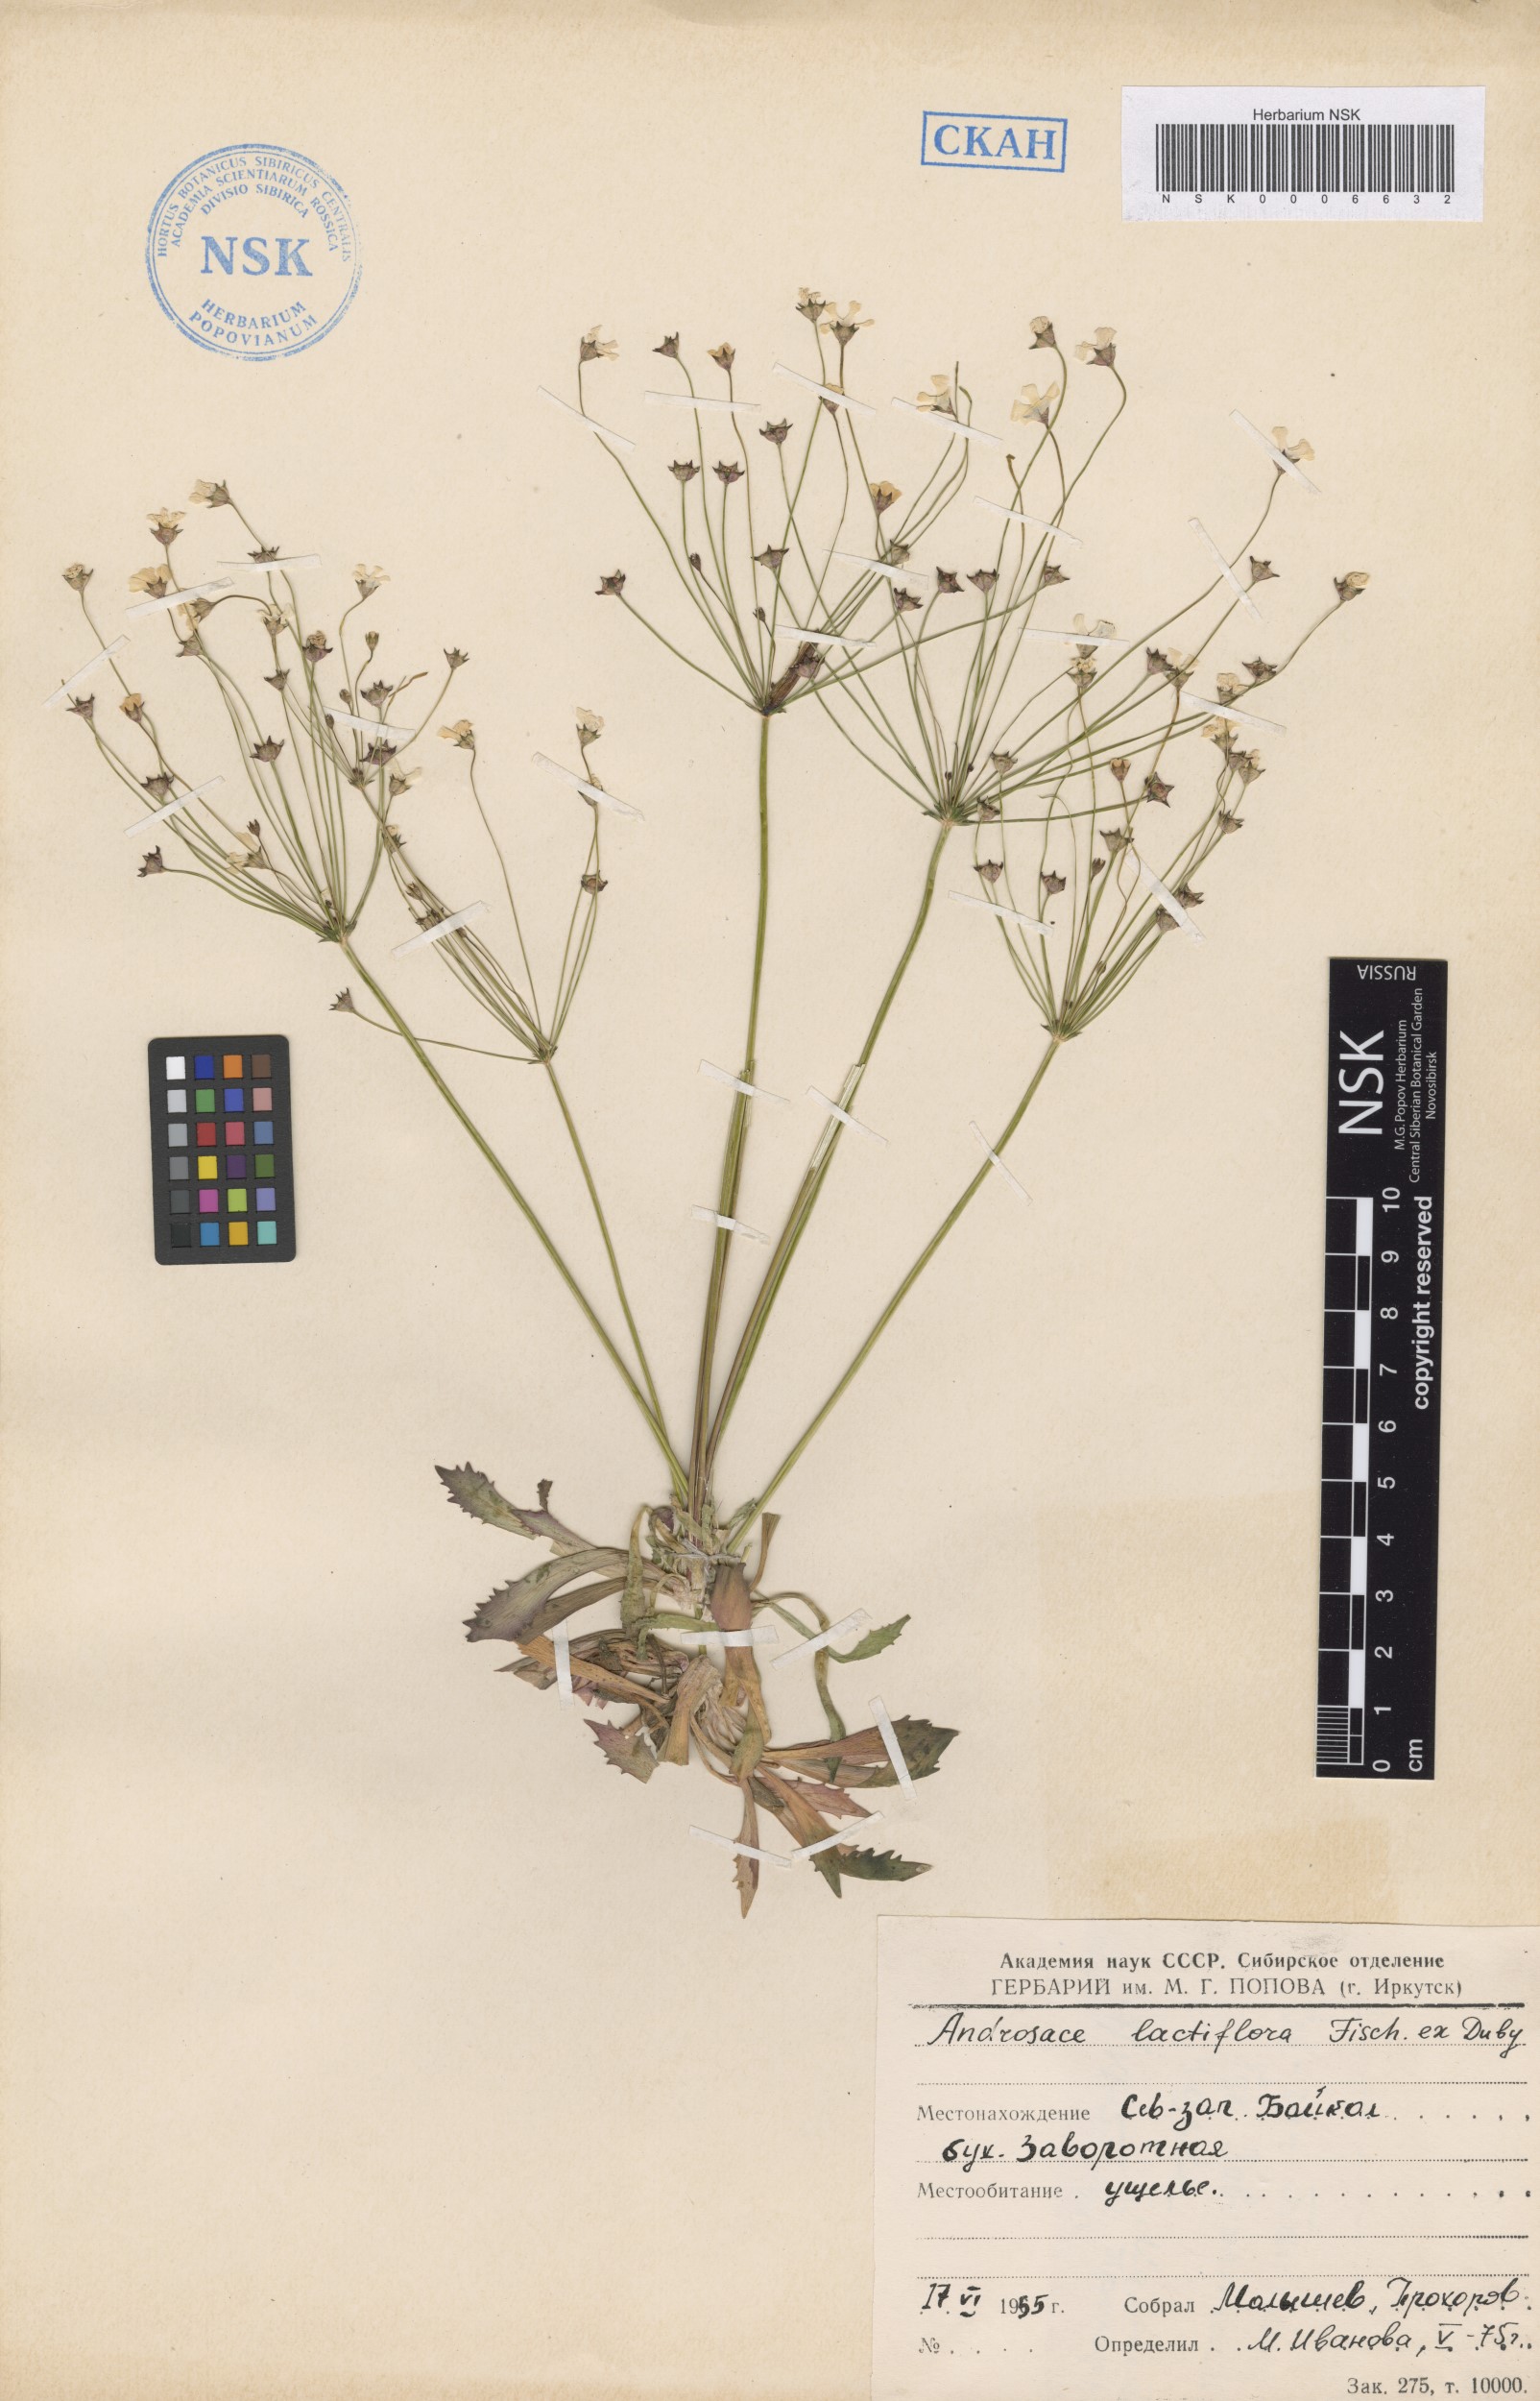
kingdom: Plantae
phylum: Tracheophyta
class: Magnoliopsida
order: Ericales
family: Primulaceae
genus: Androsace
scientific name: Androsace lactiflora
